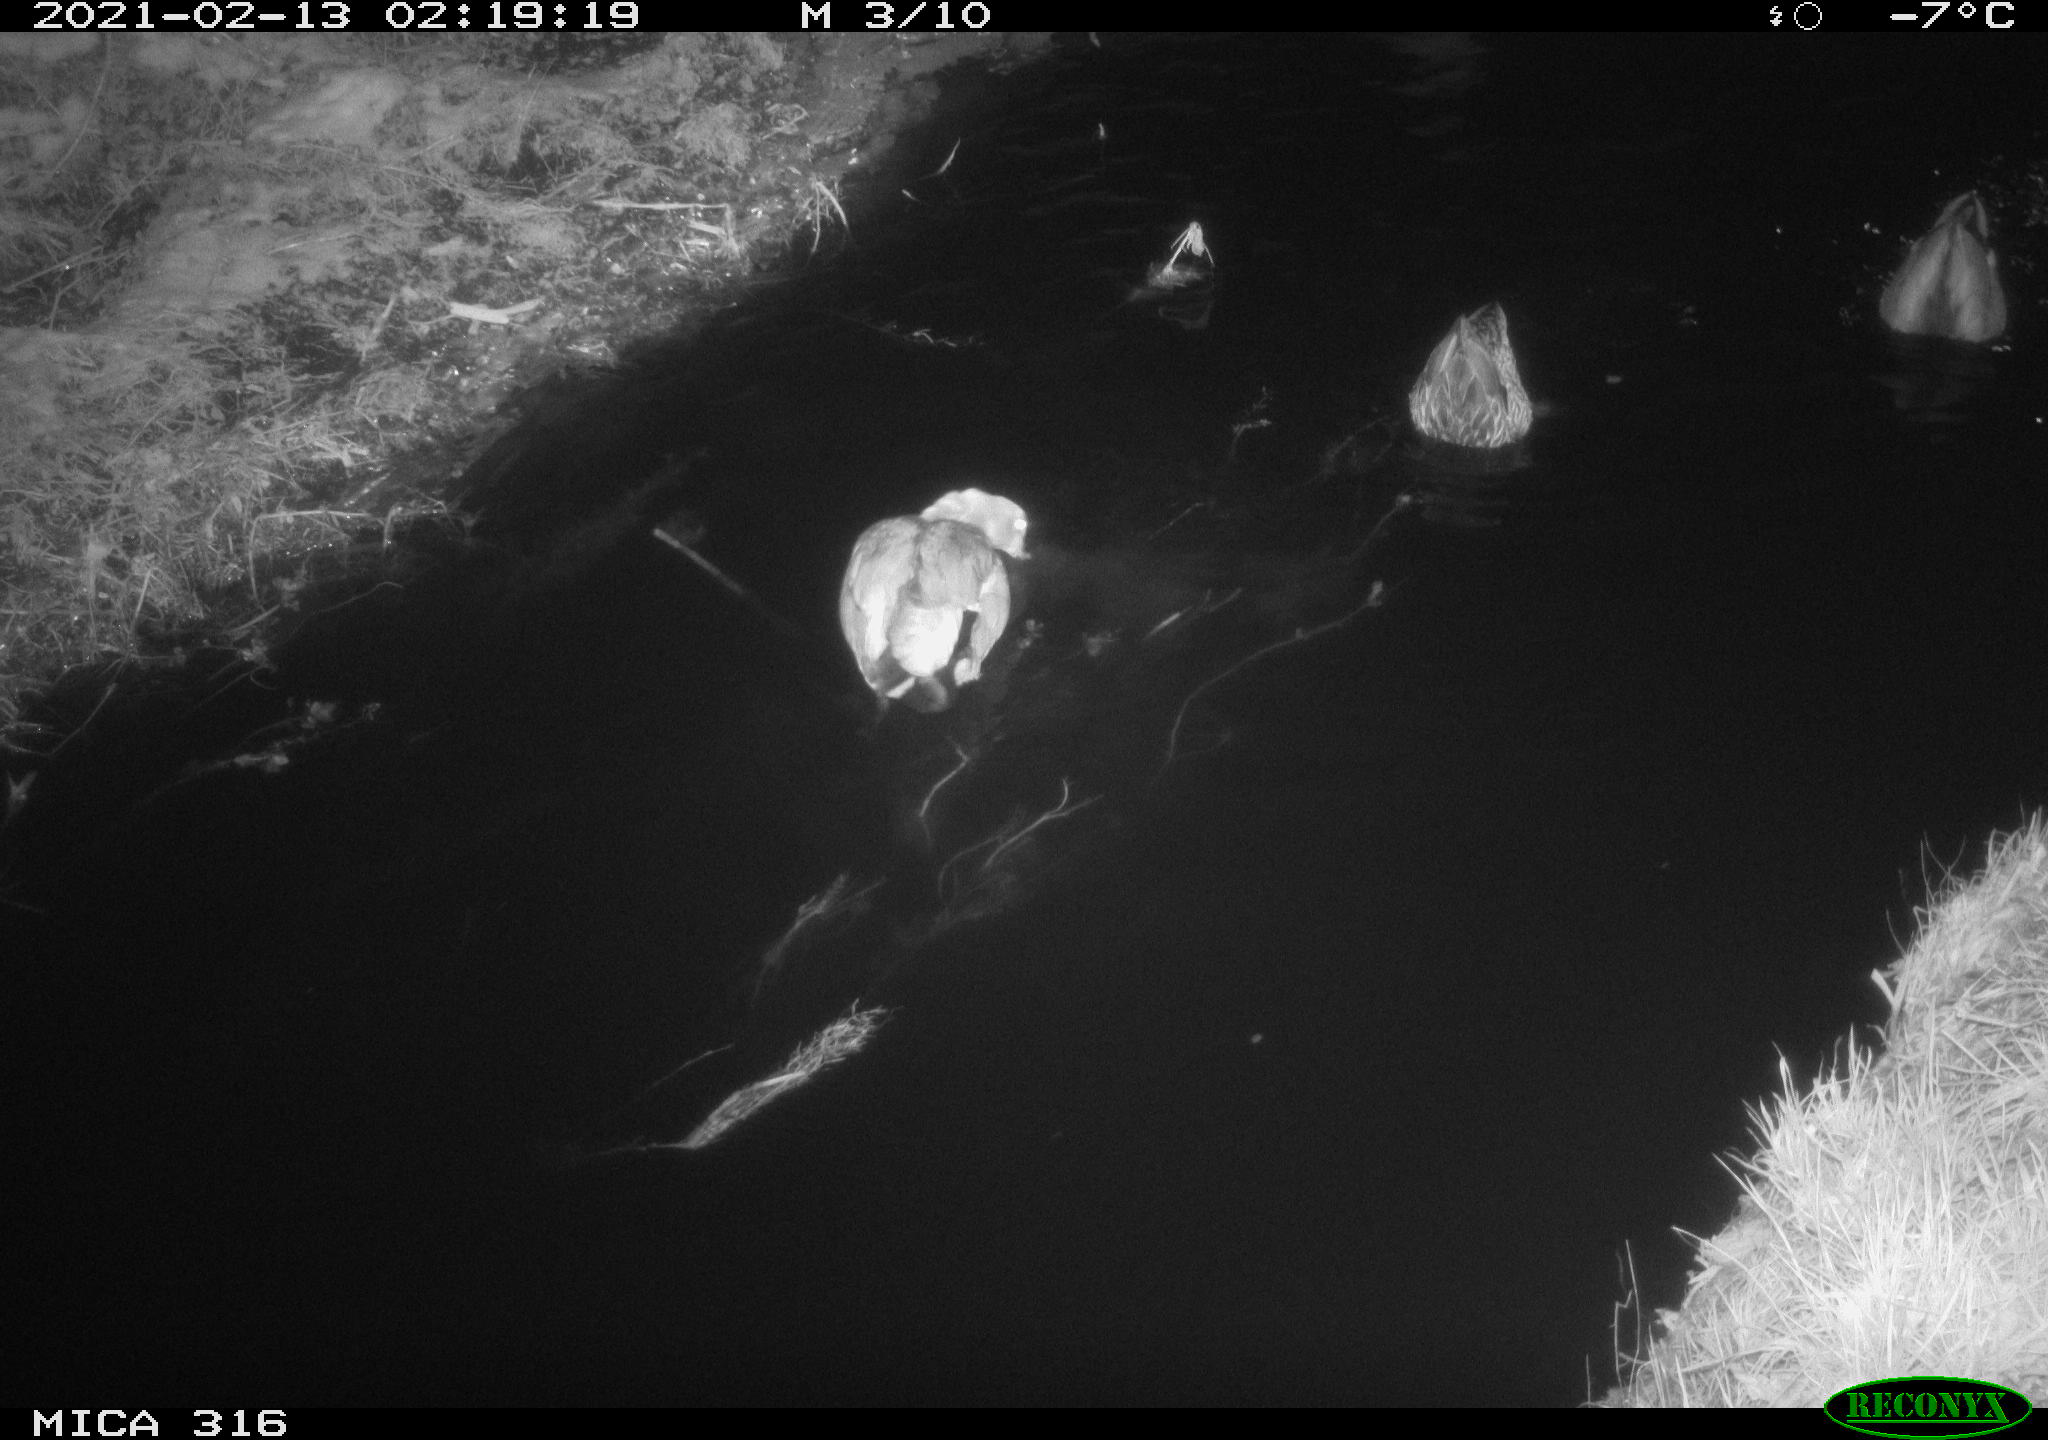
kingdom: Animalia
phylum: Chordata
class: Aves
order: Anseriformes
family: Anatidae
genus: Alopochen
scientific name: Alopochen aegyptiaca
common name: Egyptian goose
